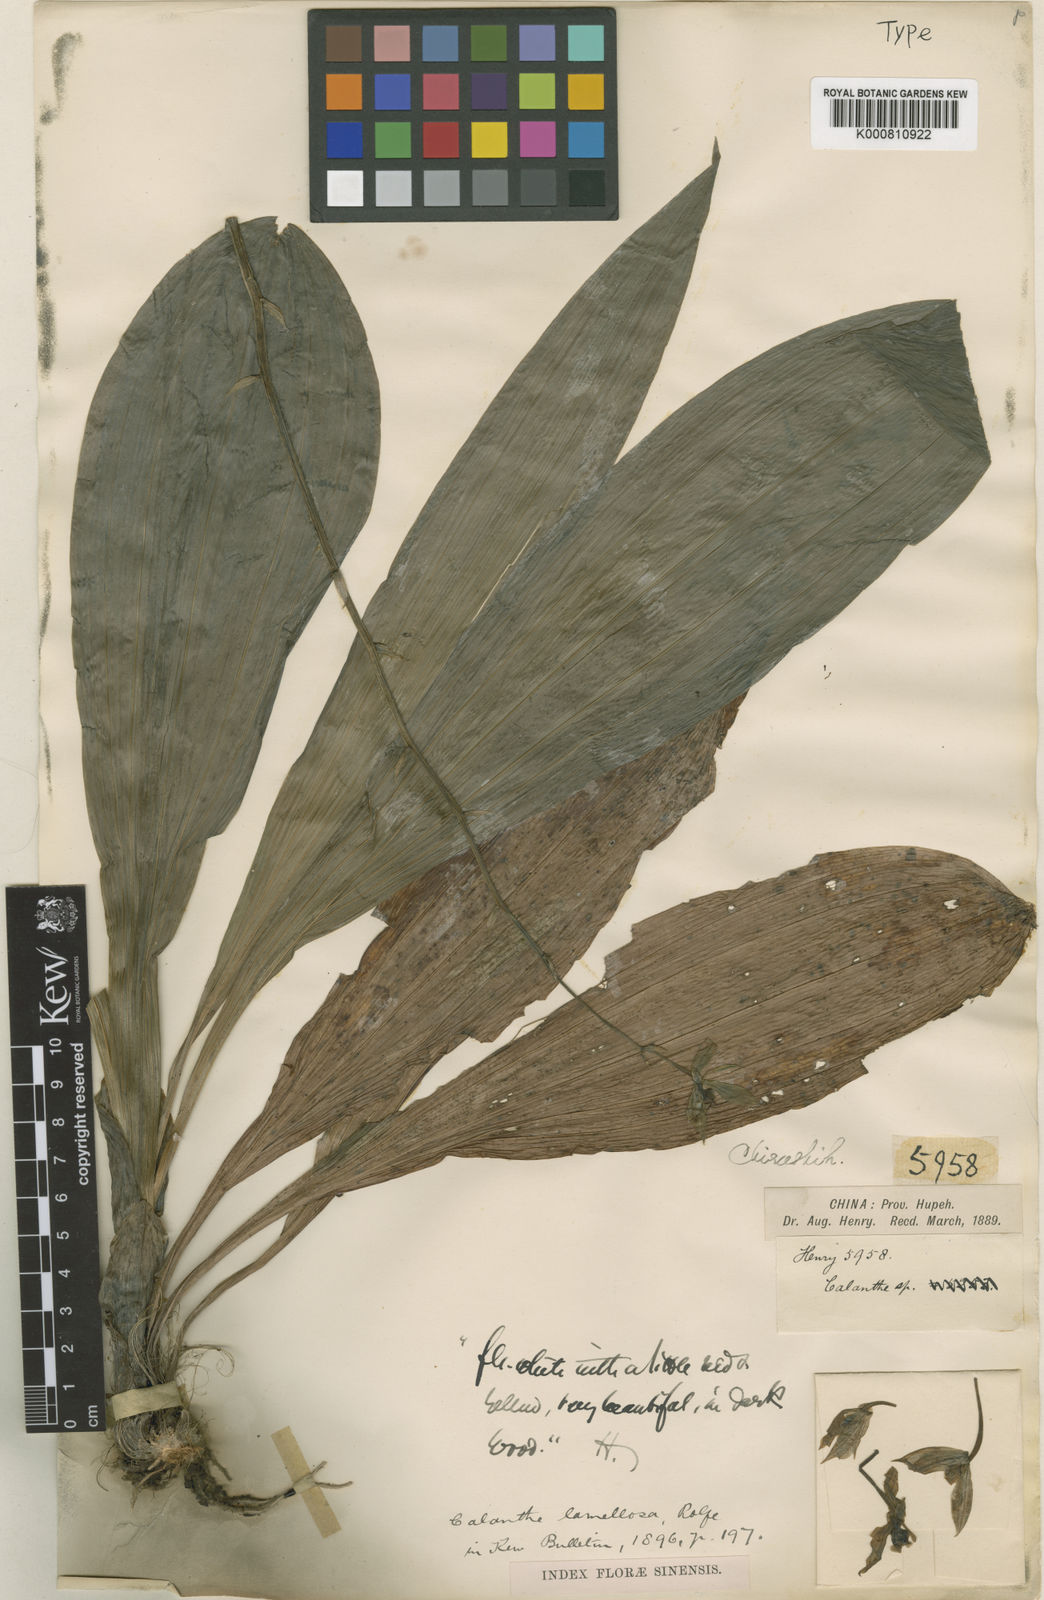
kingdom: Plantae
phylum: Tracheophyta
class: Liliopsida
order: Asparagales
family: Orchidaceae
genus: Calanthe
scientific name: Calanthe lamellosa
